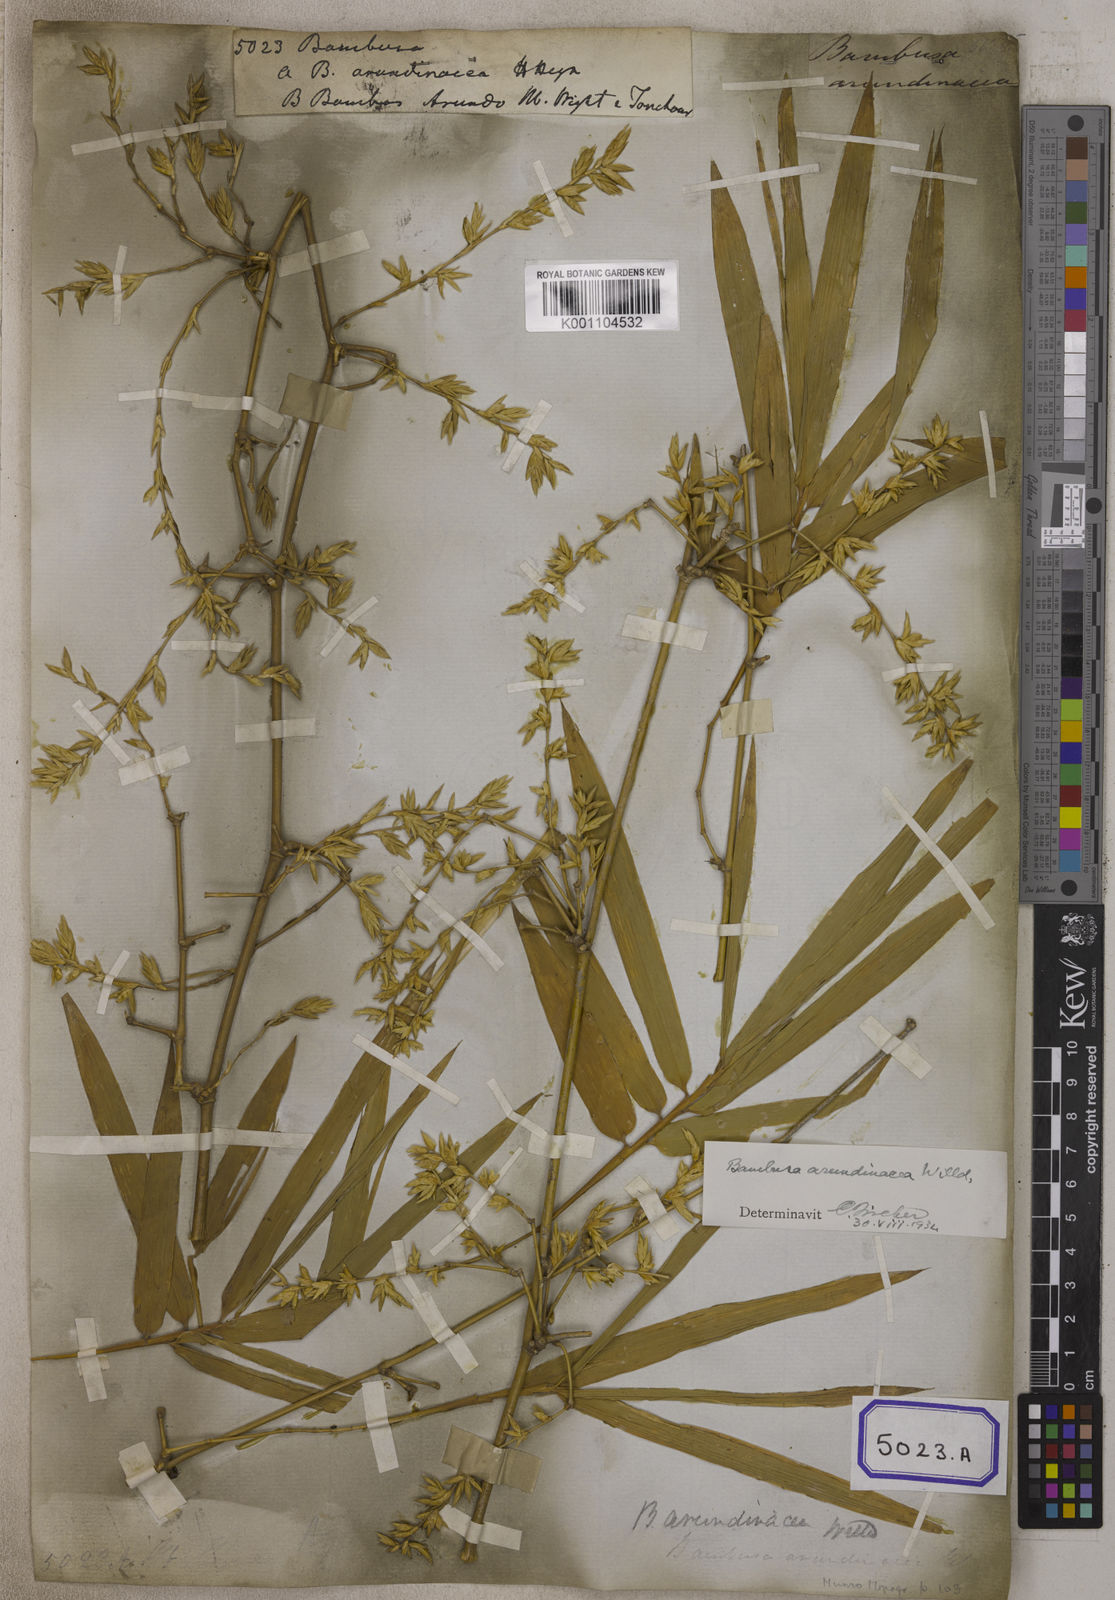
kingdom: Plantae
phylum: Tracheophyta
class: Liliopsida
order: Poales
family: Poaceae
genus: Bambusa
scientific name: Bambusa
